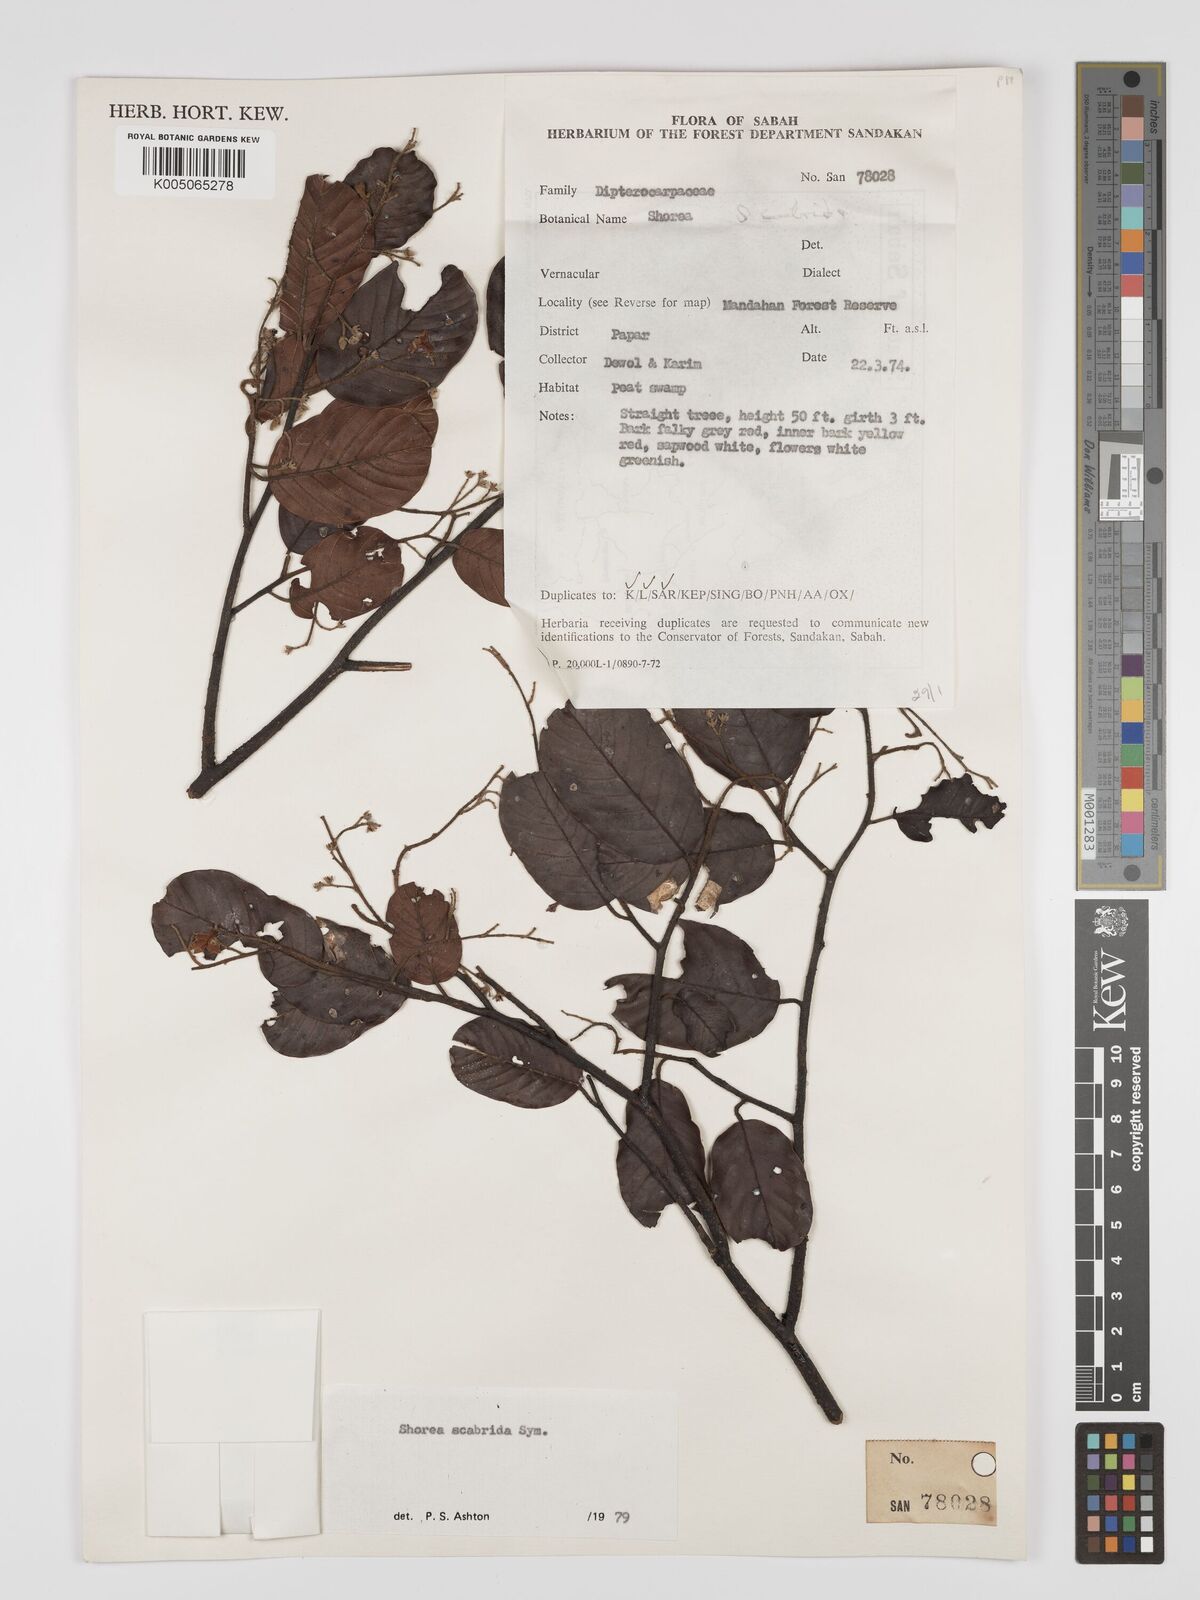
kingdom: Plantae
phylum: Tracheophyta
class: Magnoliopsida
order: Malvales
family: Dipterocarpaceae
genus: Shorea
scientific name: Shorea scabrida
